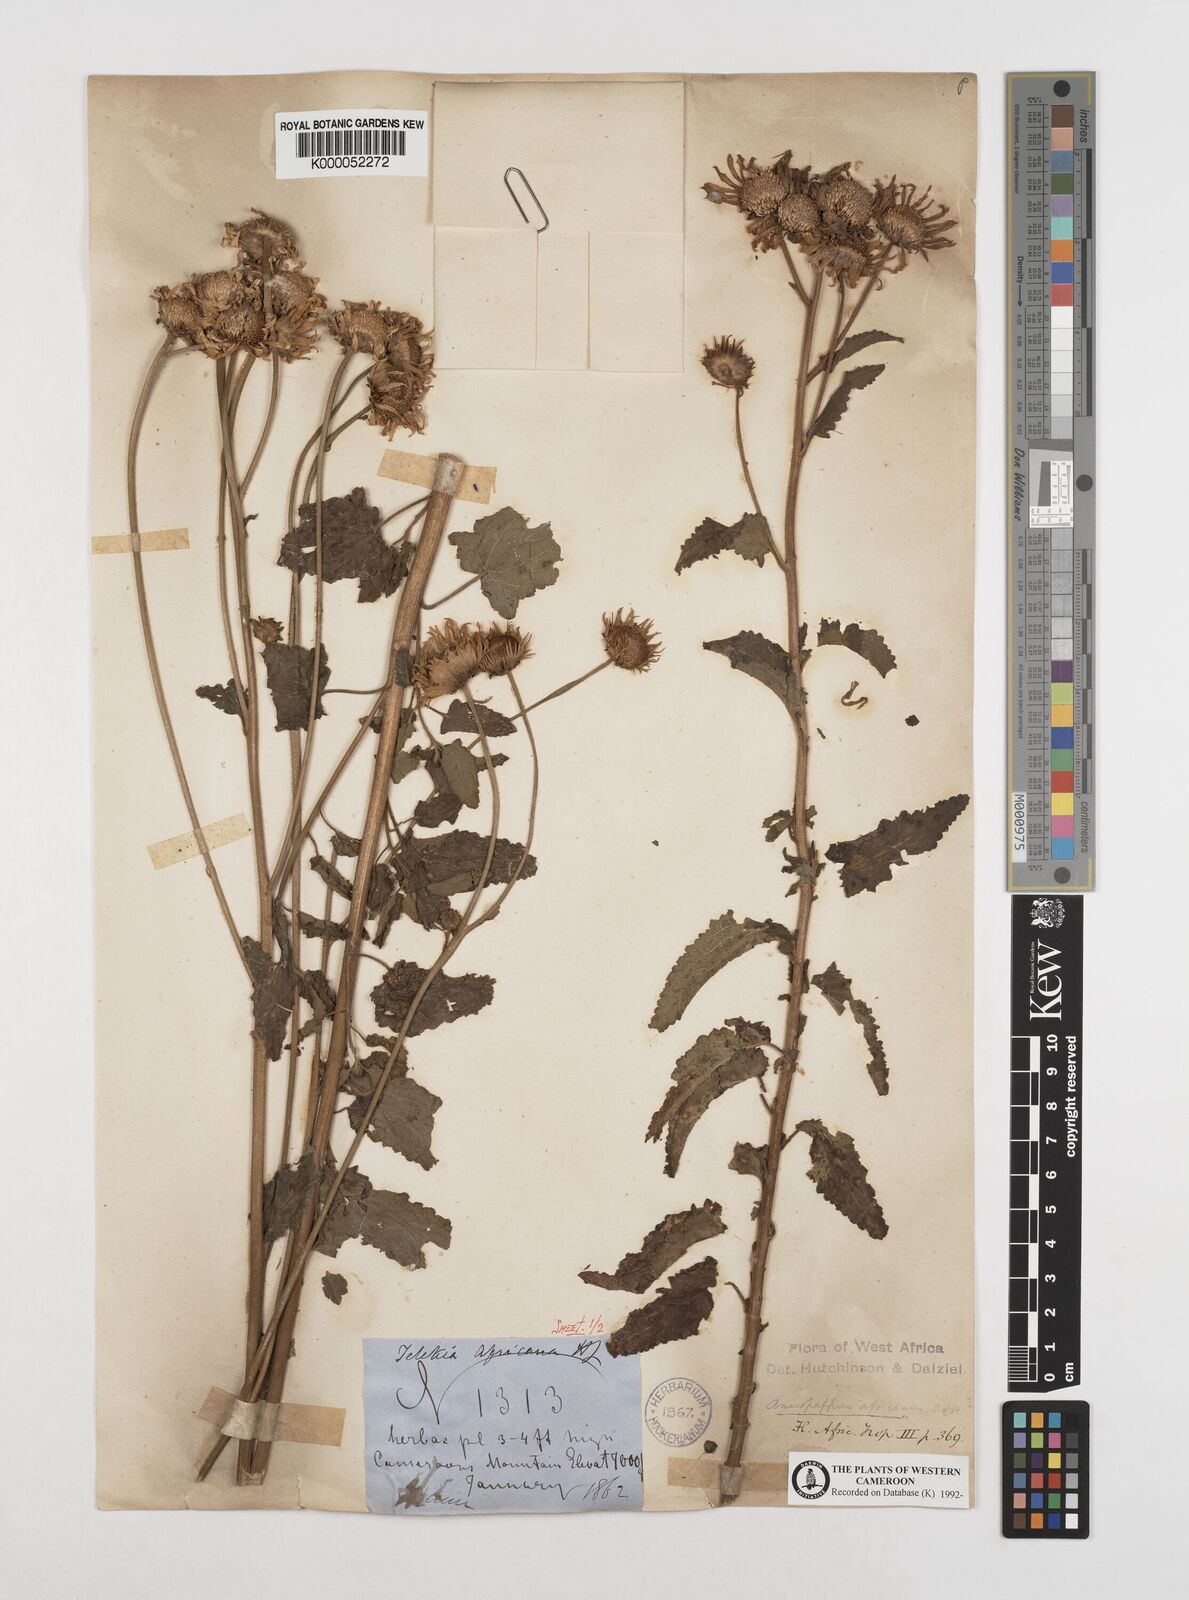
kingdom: Plantae
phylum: Tracheophyta
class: Magnoliopsida
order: Asterales
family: Asteraceae
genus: Anisopappus
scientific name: Anisopappus chinensis
